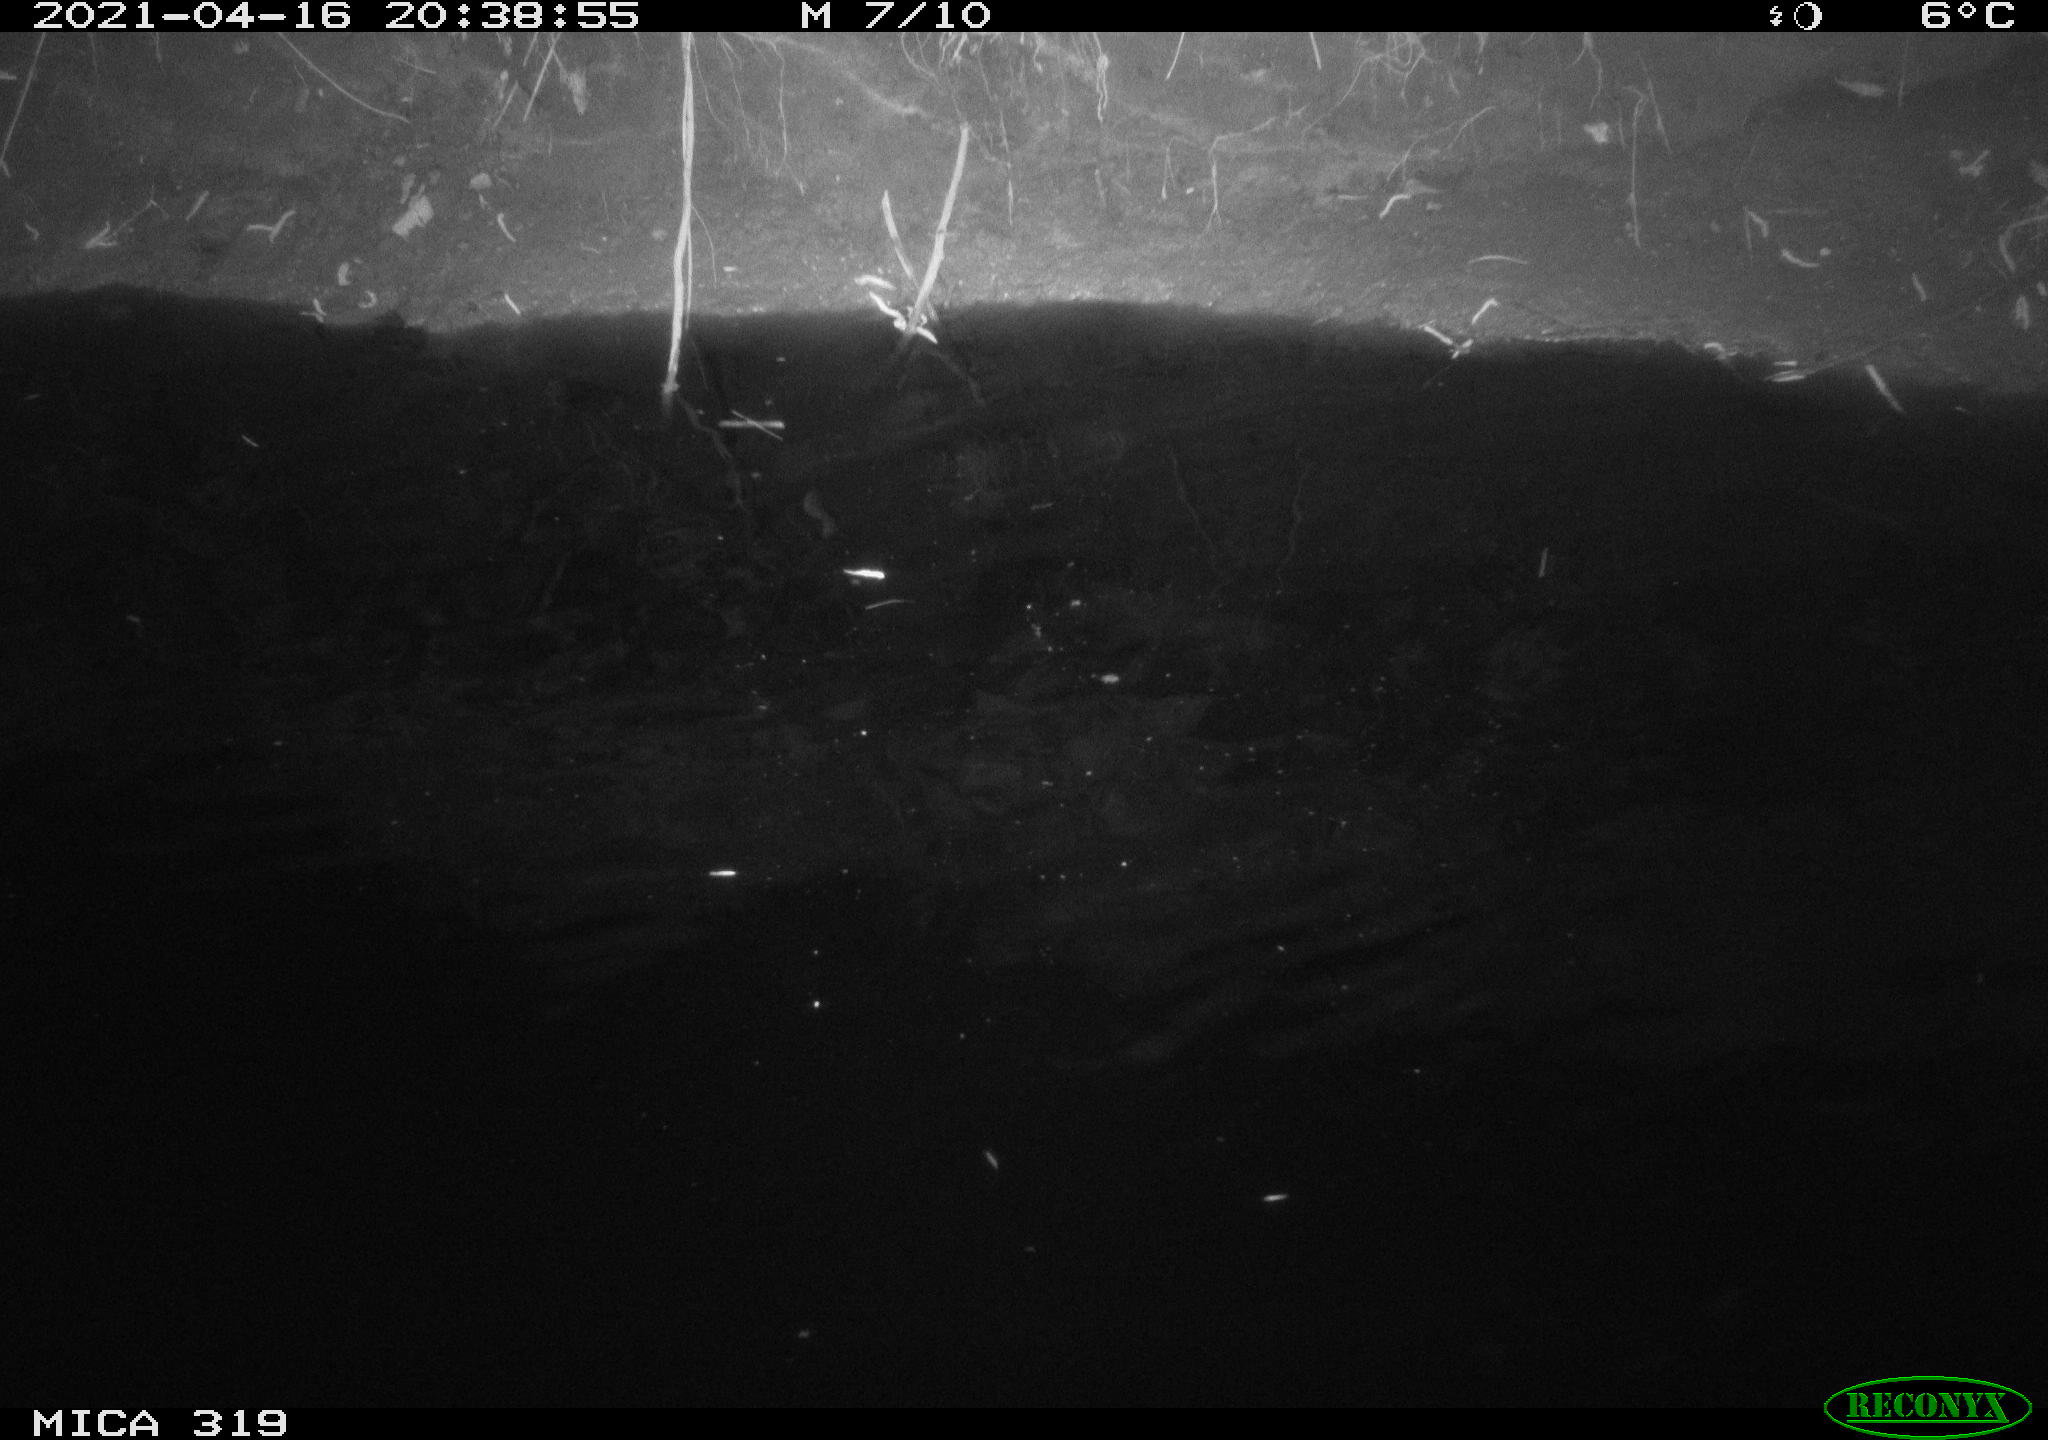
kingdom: Animalia
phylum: Chordata
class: Aves
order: Anseriformes
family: Anatidae
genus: Anas
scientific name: Anas platyrhynchos
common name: Mallard
